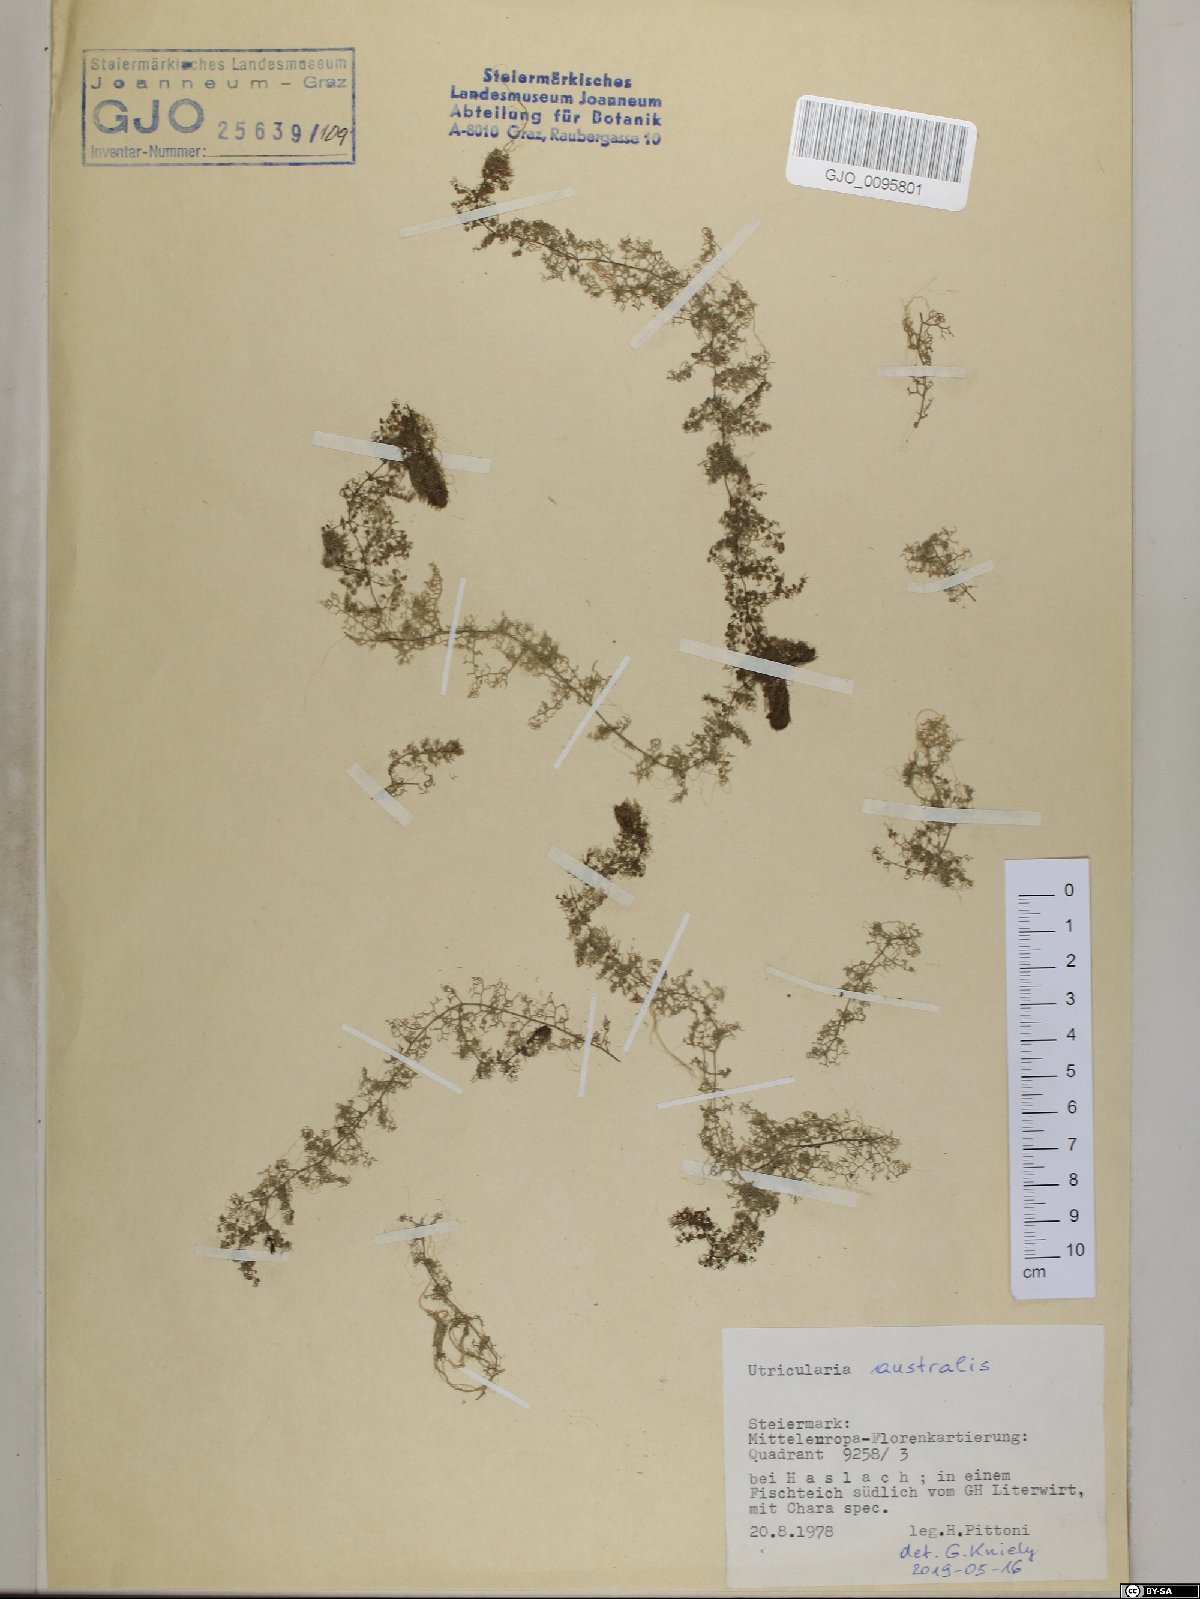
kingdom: Plantae
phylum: Tracheophyta
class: Magnoliopsida
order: Lamiales
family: Lentibulariaceae
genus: Utricularia
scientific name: Utricularia australis
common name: Bladderwort
